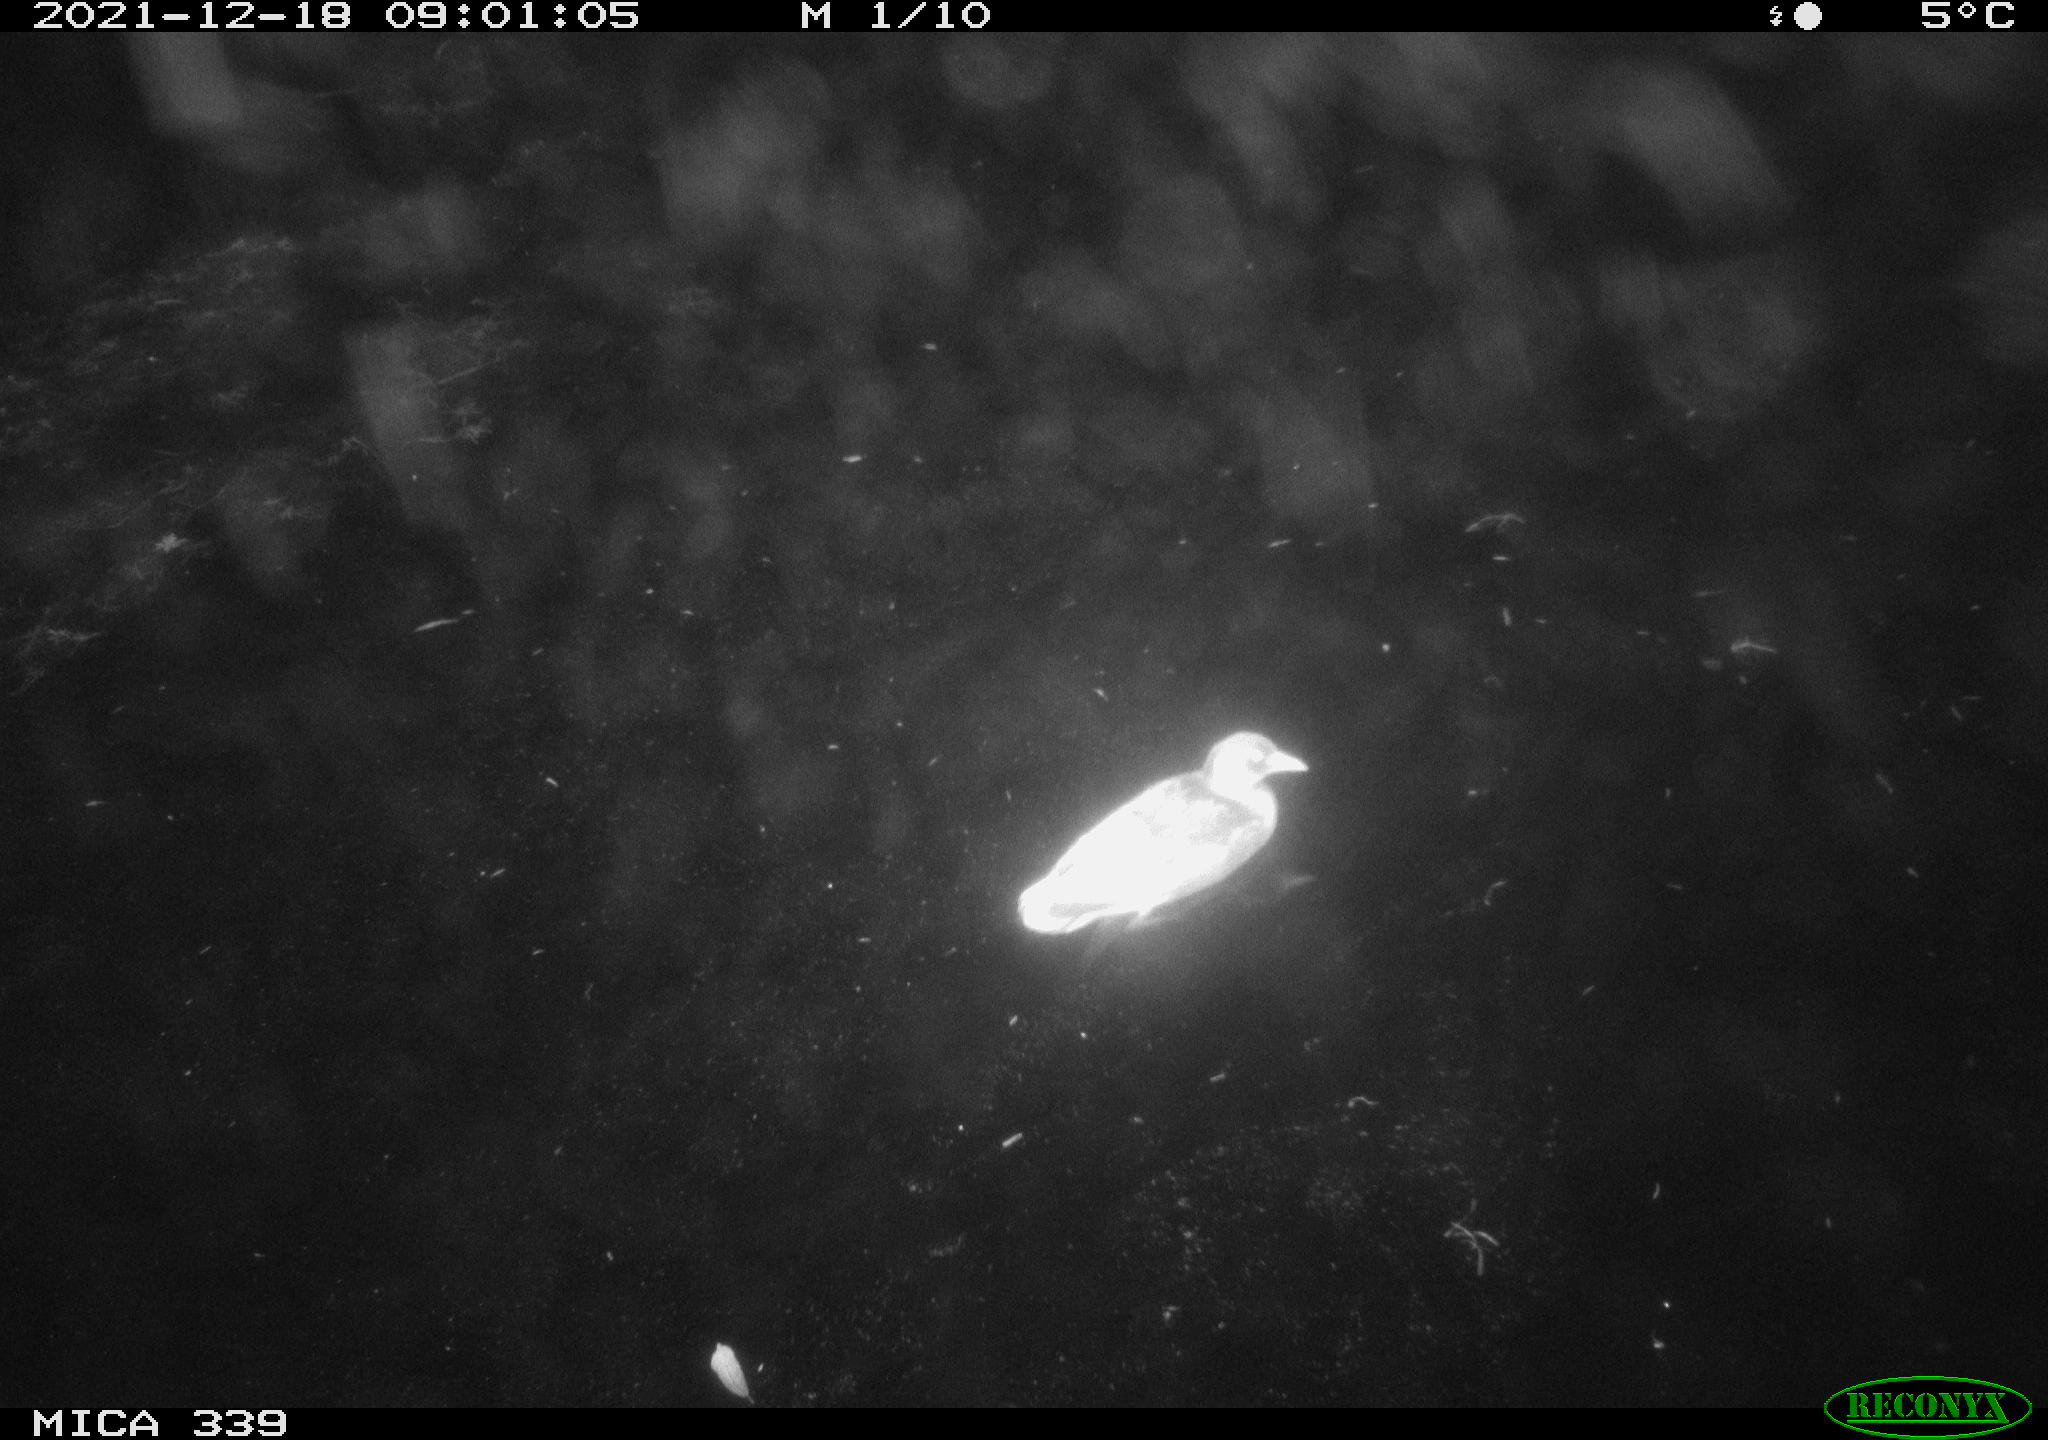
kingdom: Animalia
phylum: Chordata
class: Aves
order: Gruiformes
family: Rallidae
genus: Gallinula
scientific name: Gallinula chloropus
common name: Common moorhen
